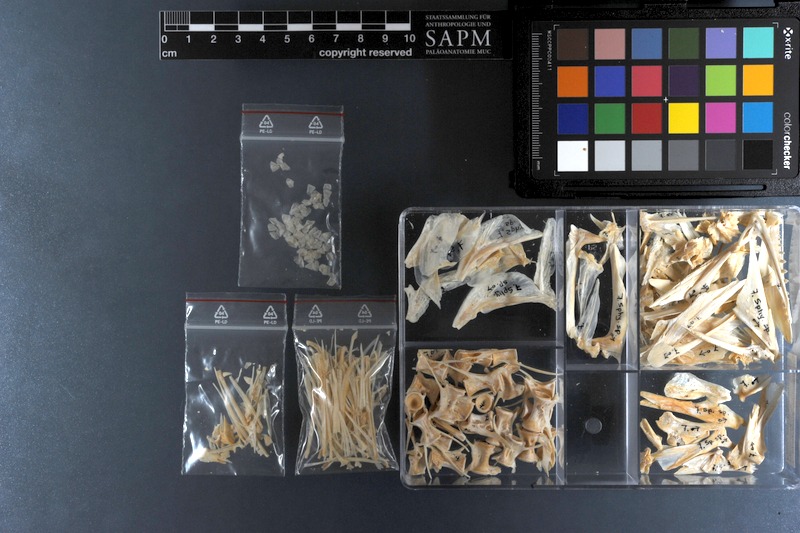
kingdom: Animalia
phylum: Chordata
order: Perciformes
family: Sphyraenidae
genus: Sphyraena
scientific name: Sphyraena sphyraena
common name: European barracuda
